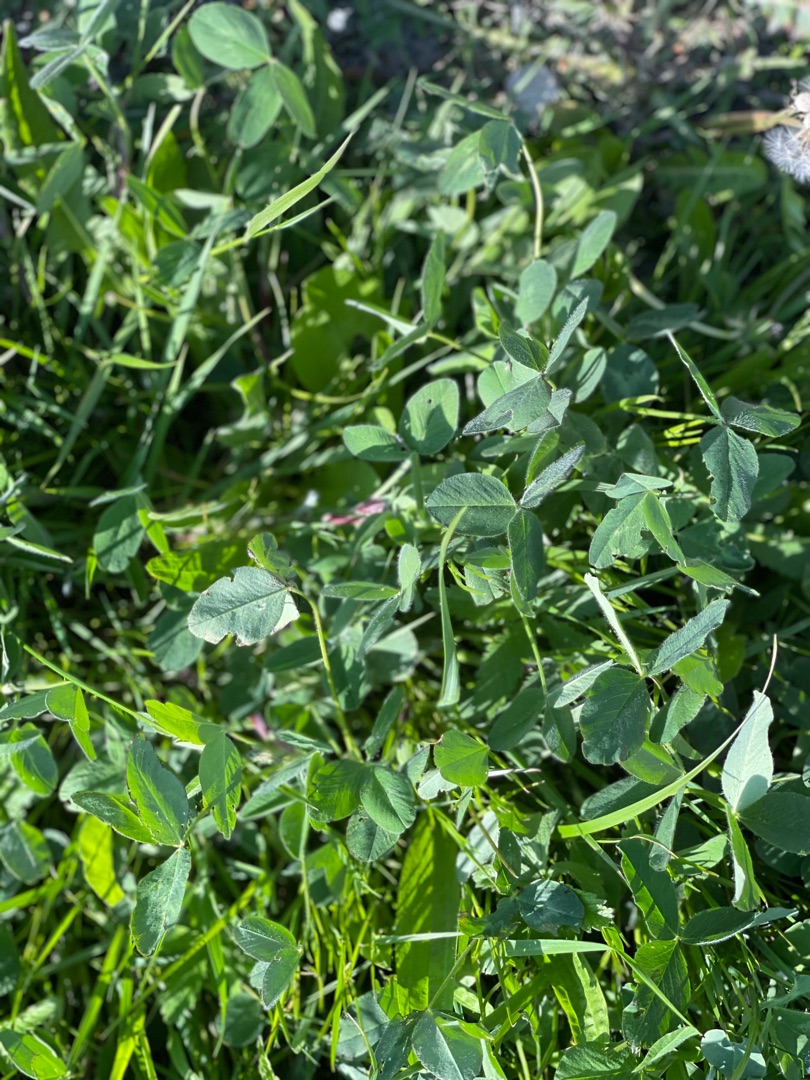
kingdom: Plantae
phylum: Tracheophyta
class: Magnoliopsida
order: Fabales
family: Fabaceae
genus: Trifolium
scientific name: Trifolium pratense
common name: Rød-kløver
